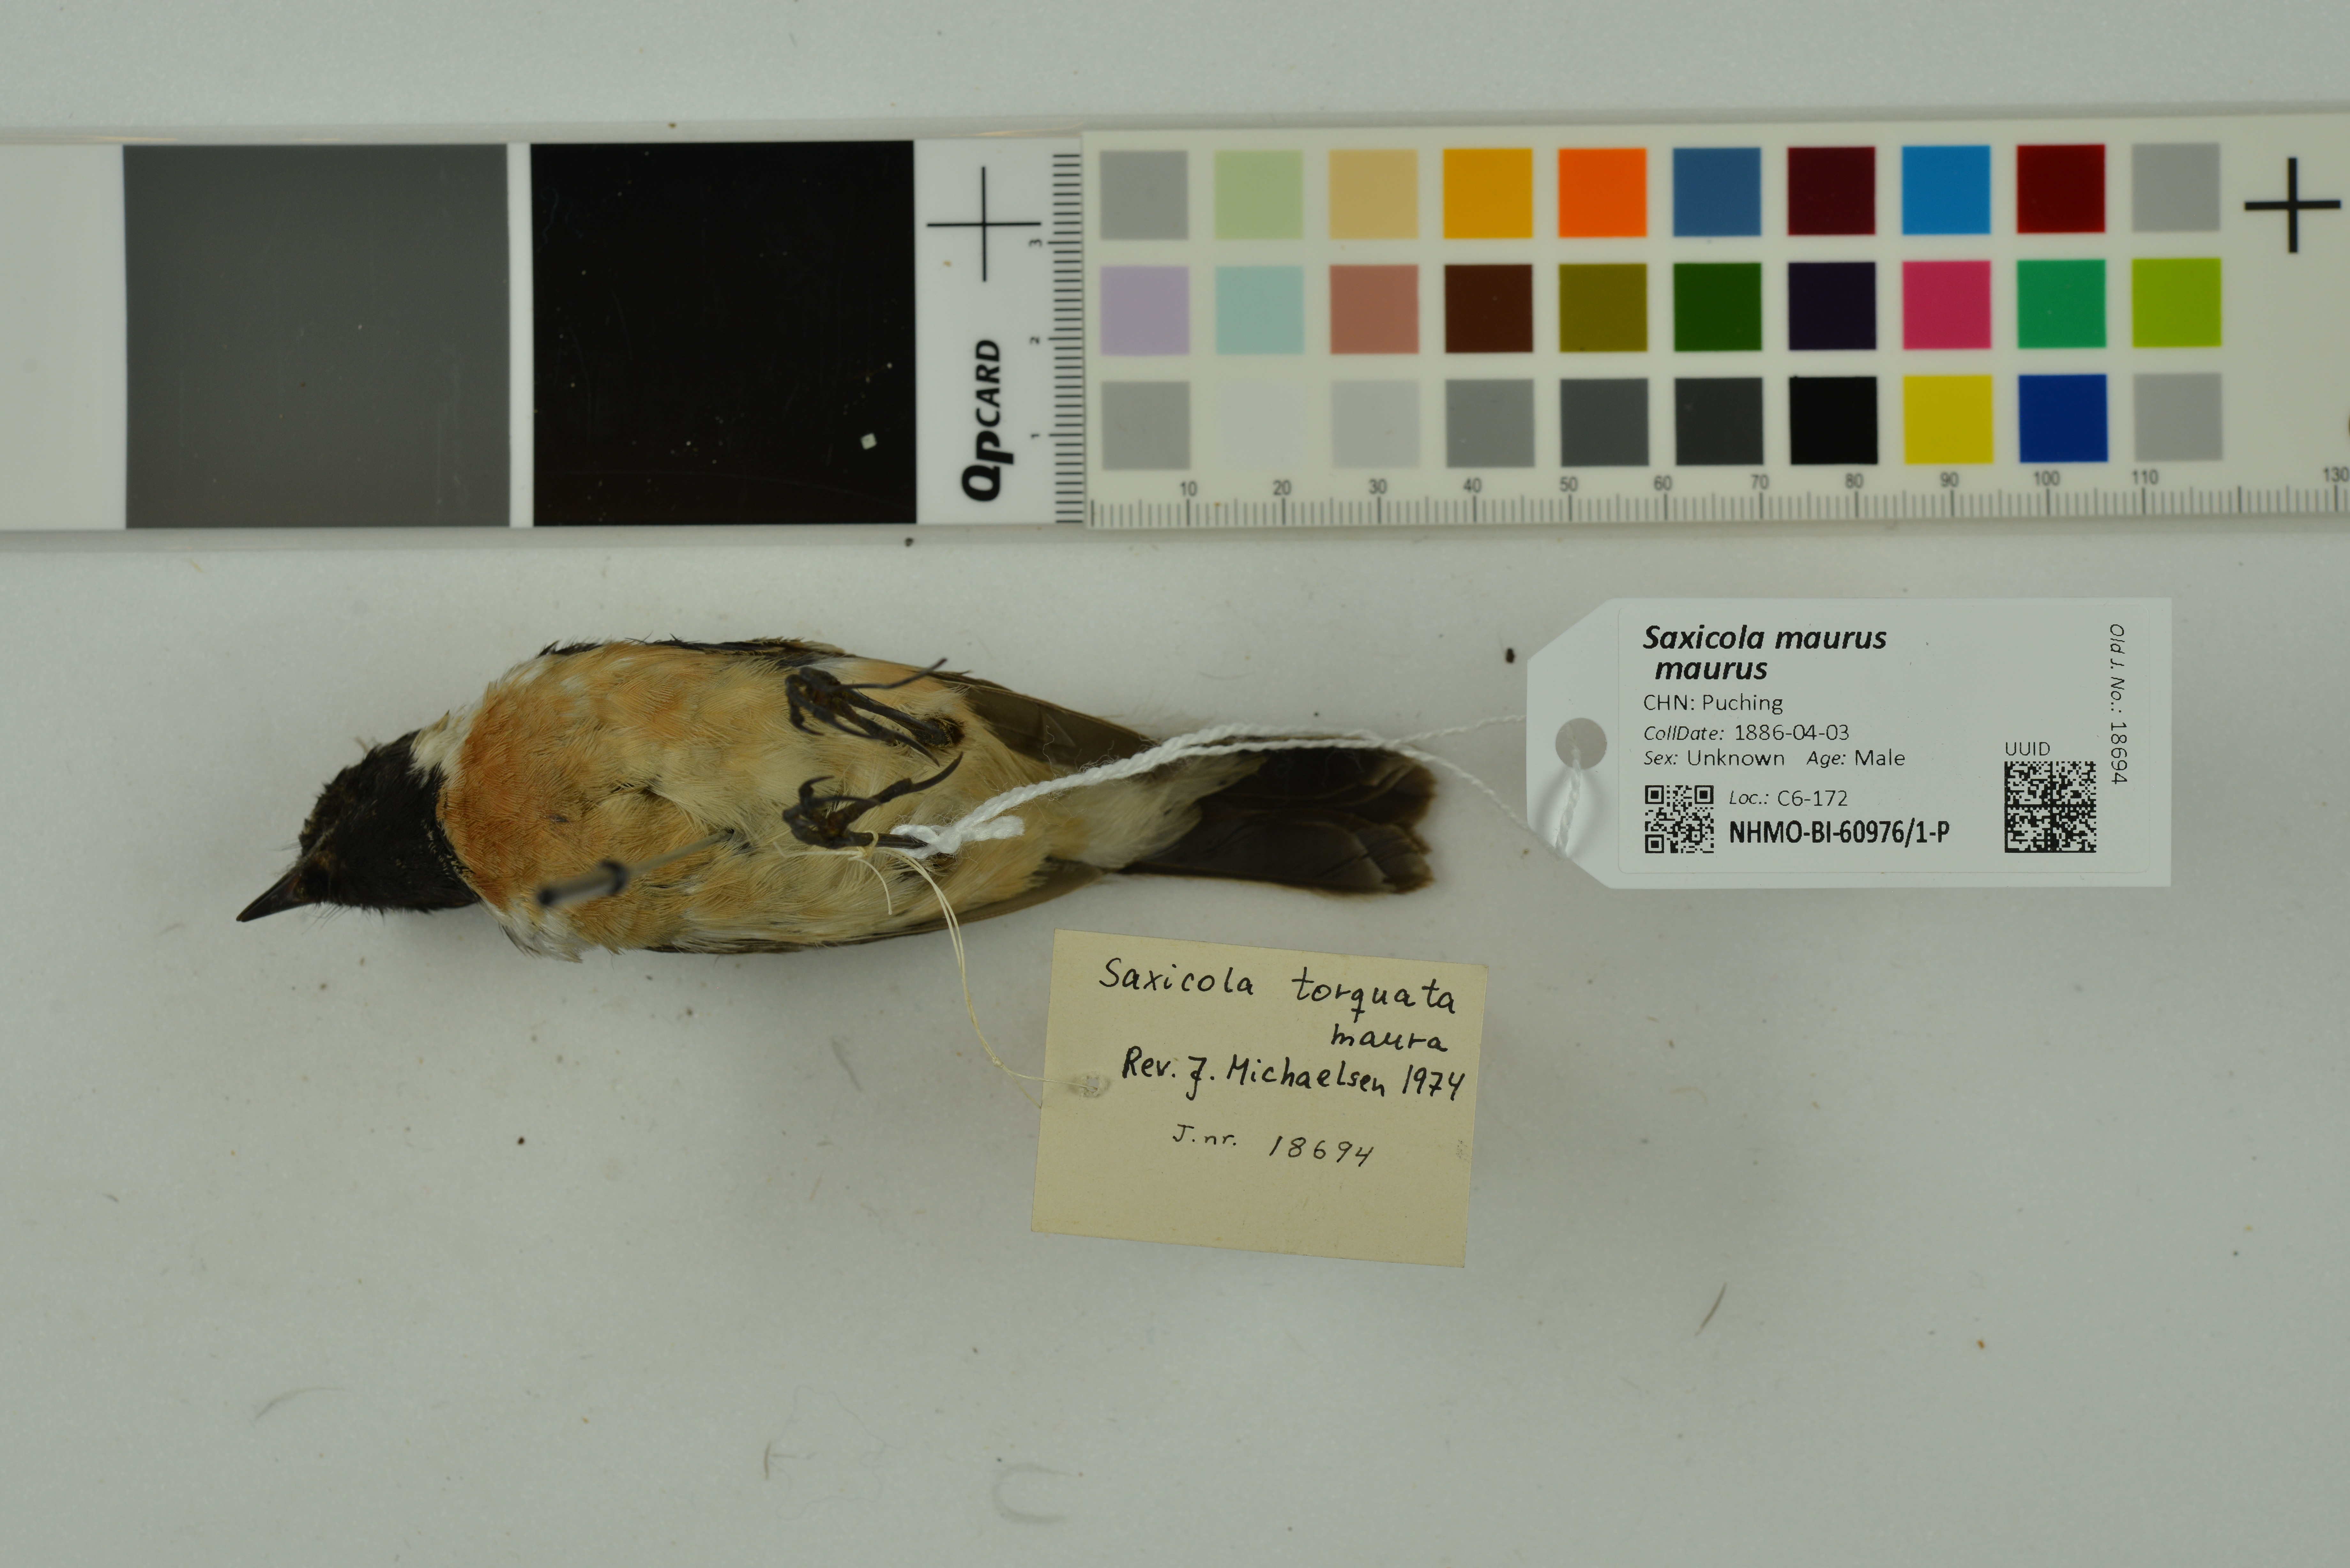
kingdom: Animalia
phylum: Chordata
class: Aves
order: Passeriformes
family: Muscicapidae
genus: Saxicola
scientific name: Saxicola maurus
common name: Siberian stonechat
